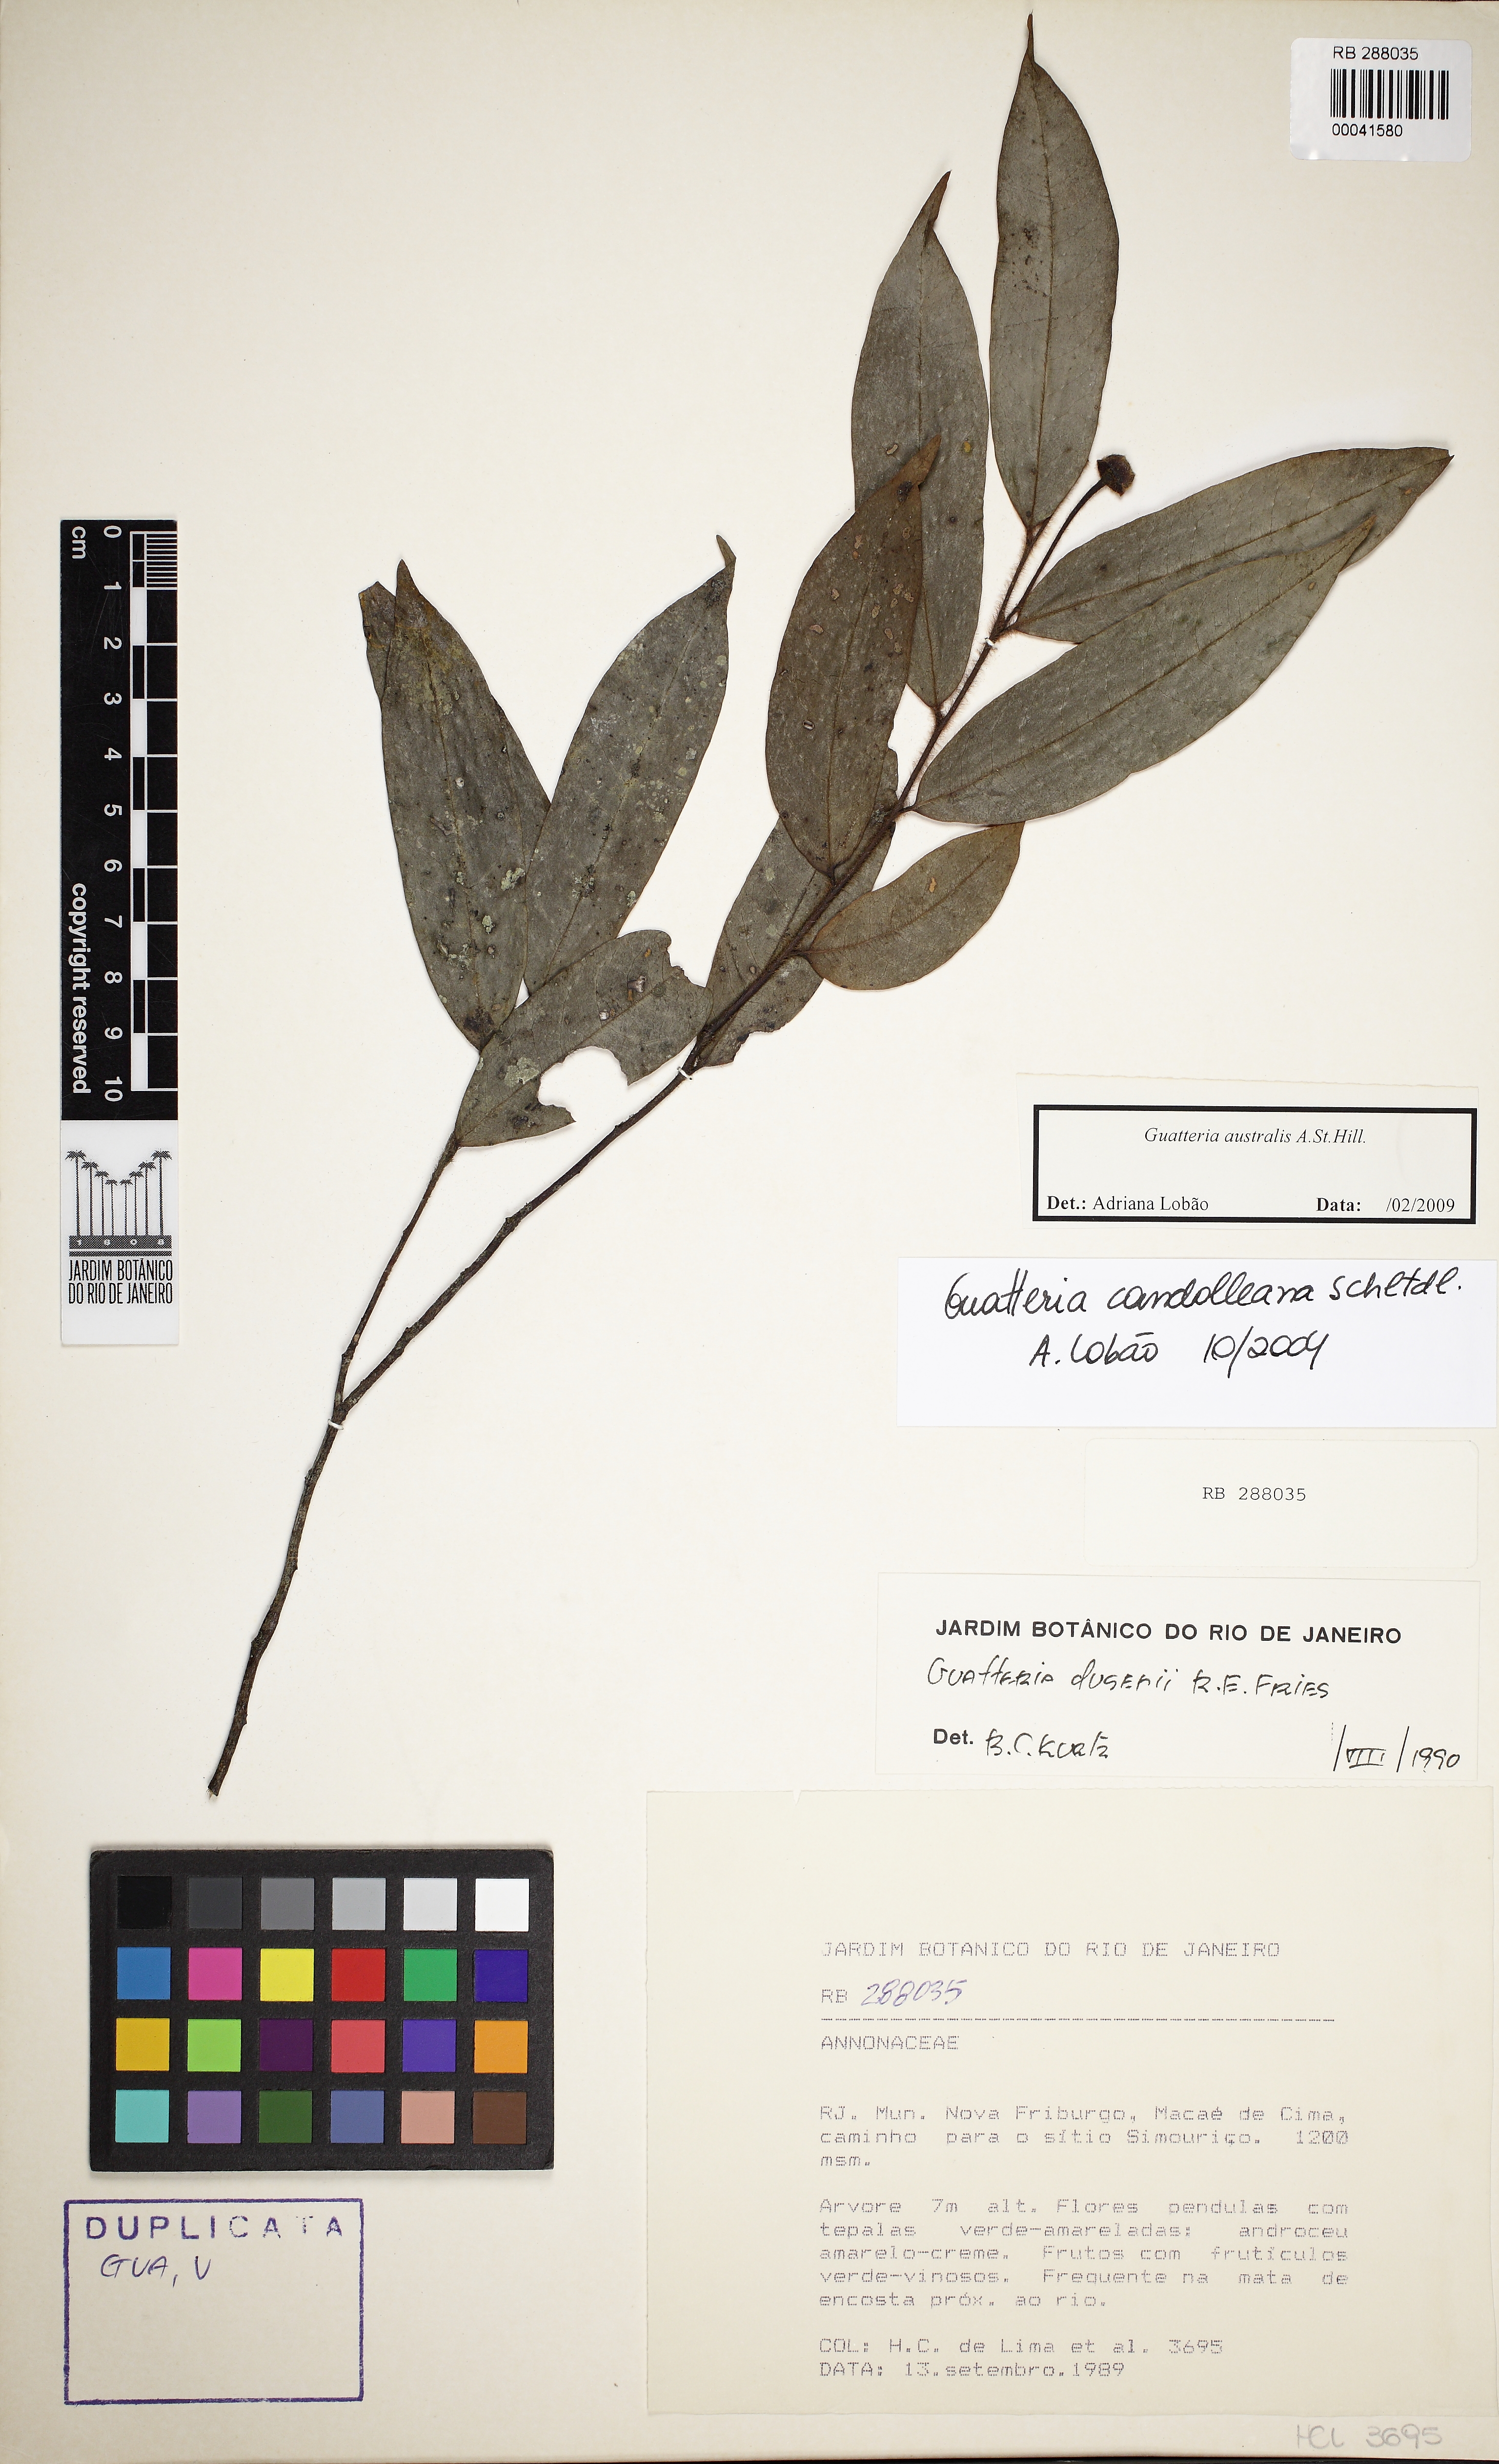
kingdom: Plantae
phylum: Tracheophyta
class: Magnoliopsida
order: Magnoliales
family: Annonaceae
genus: Guatteria
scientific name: Guatteria australis
